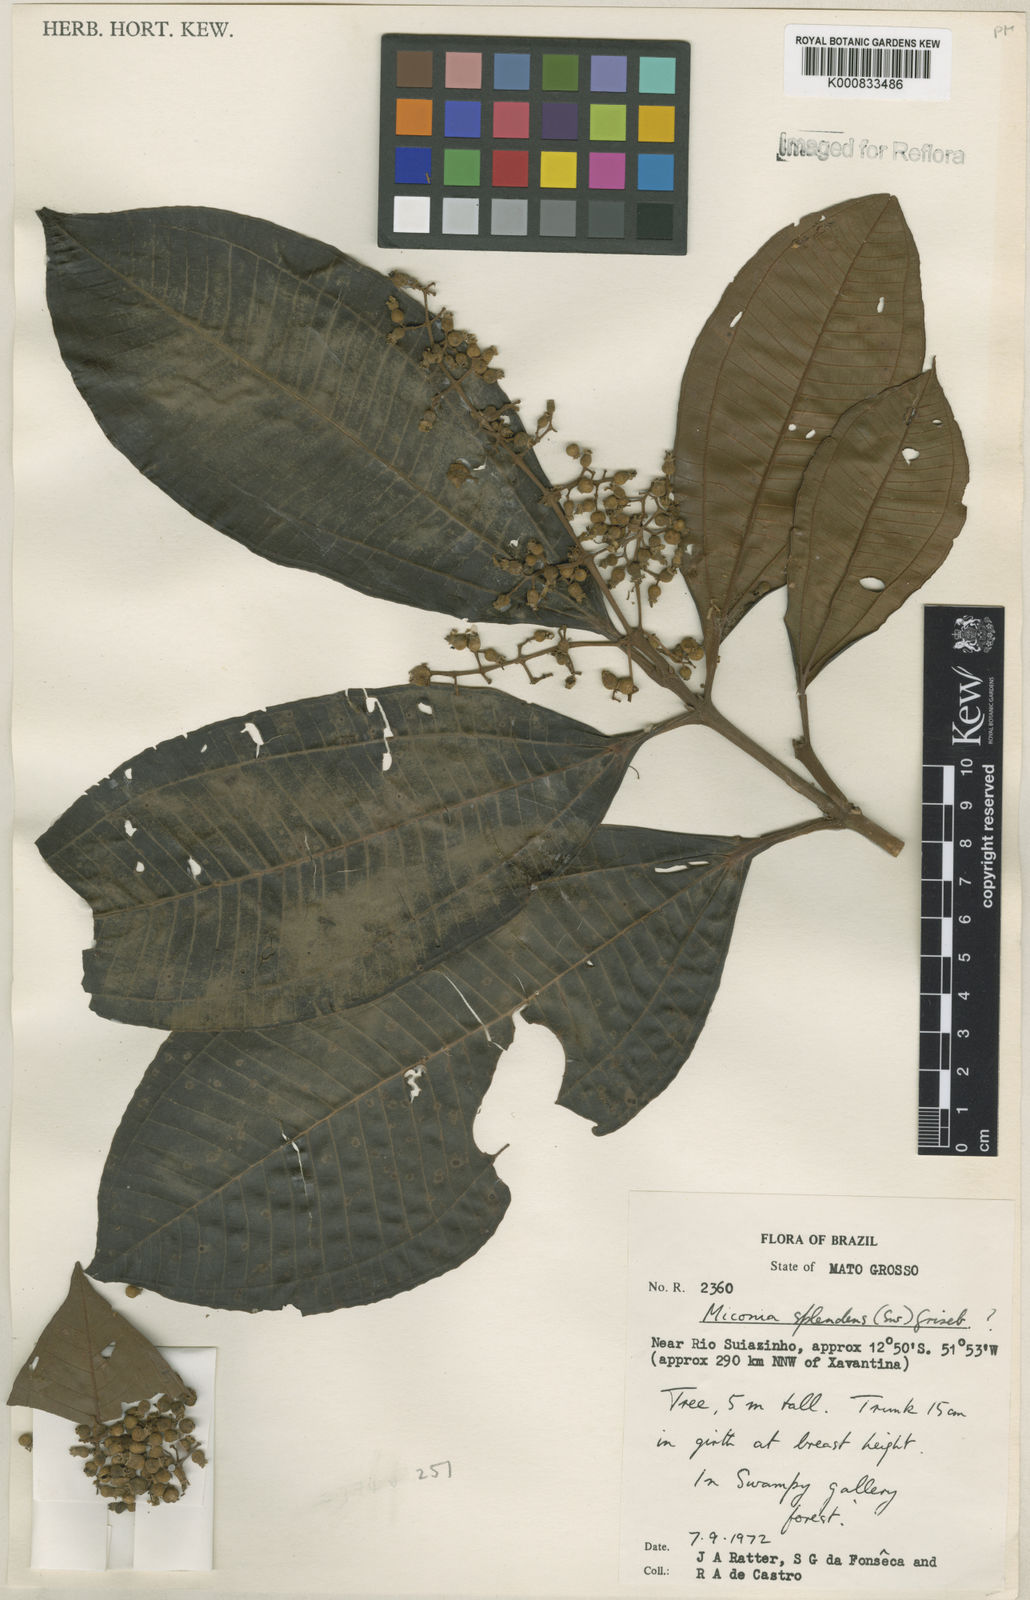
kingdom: Plantae
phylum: Tracheophyta
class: Magnoliopsida
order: Myrtales
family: Melastomataceae
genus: Miconia
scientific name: Miconia splendens
